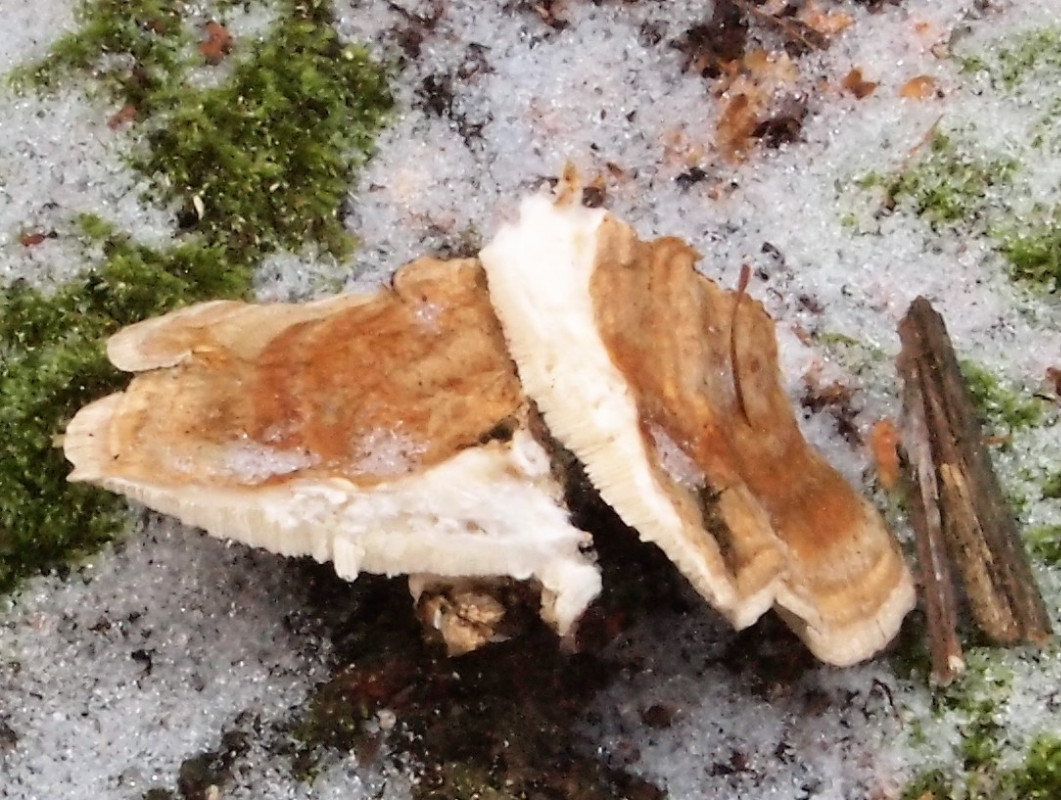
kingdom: Fungi
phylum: Basidiomycota
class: Agaricomycetes
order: Polyporales
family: Polyporaceae
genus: Trametes
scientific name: Trametes ochracea
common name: bæltet læderporesvamp
